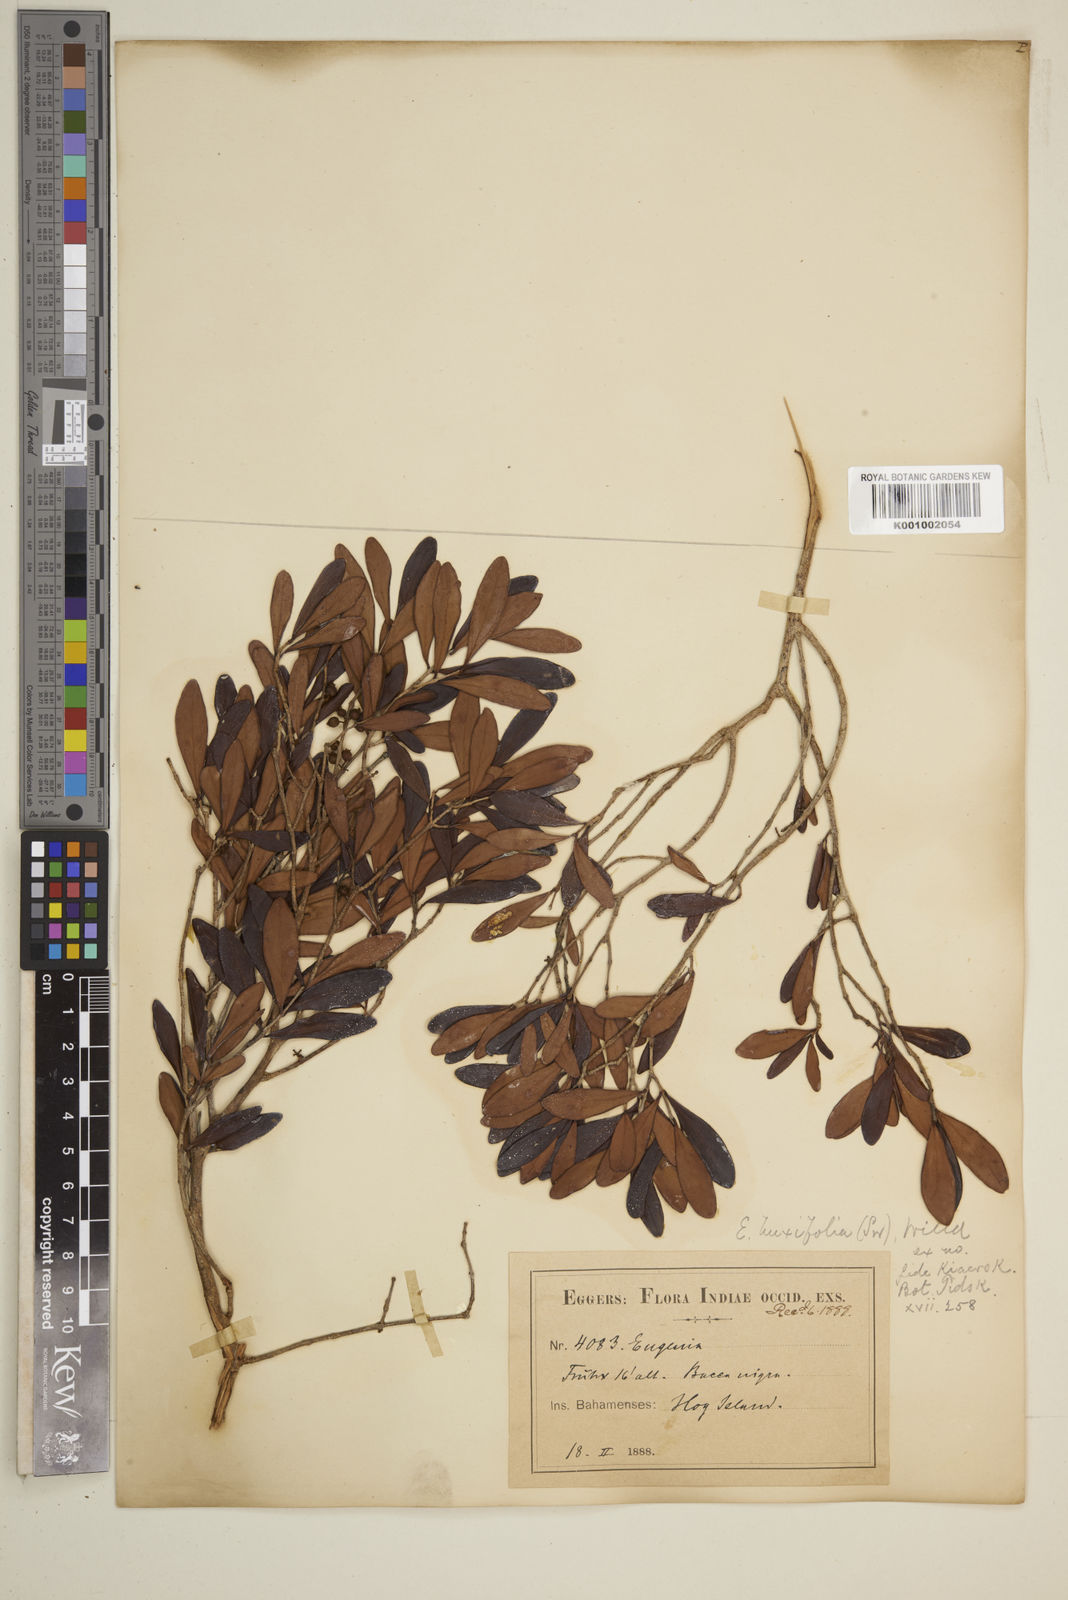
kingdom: Plantae
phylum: Tracheophyta
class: Magnoliopsida
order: Myrtales
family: Myrtaceae
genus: Eugenia
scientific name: Eugenia buxifolia
